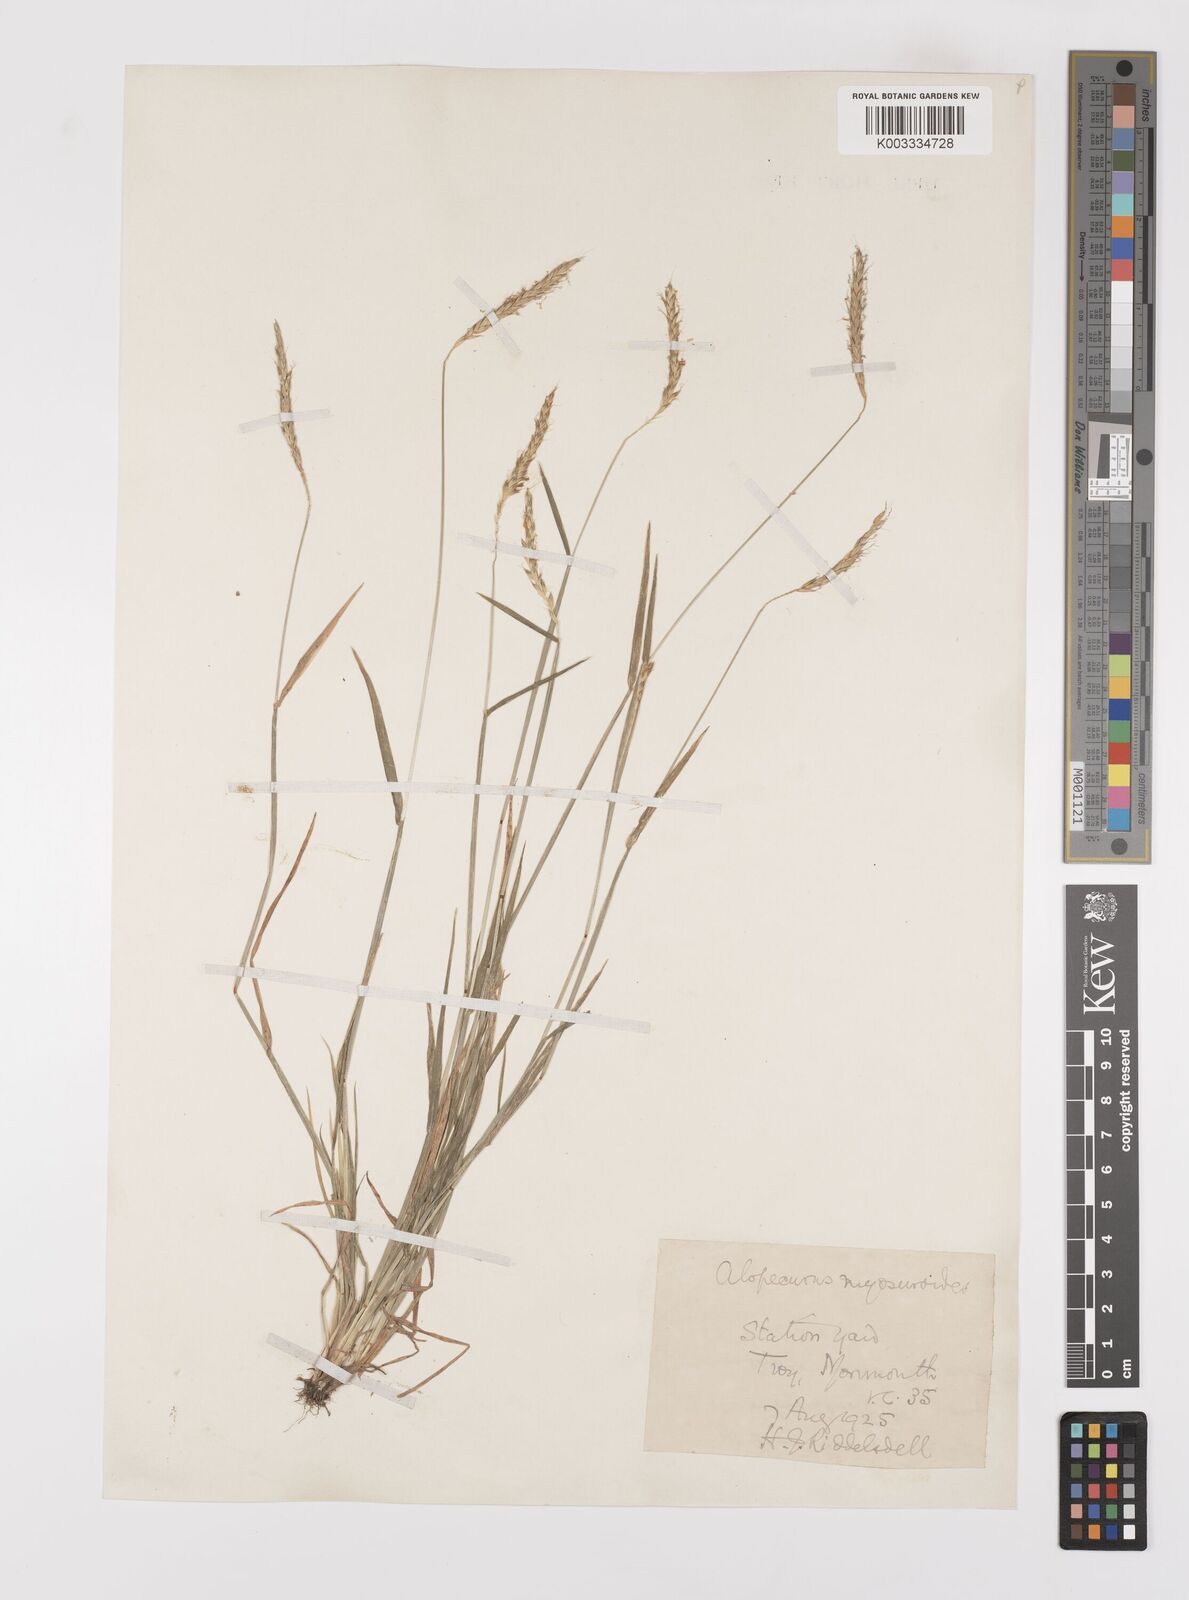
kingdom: Plantae
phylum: Tracheophyta
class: Liliopsida
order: Poales
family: Poaceae
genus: Alopecurus
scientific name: Alopecurus myosuroides
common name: Black-grass
